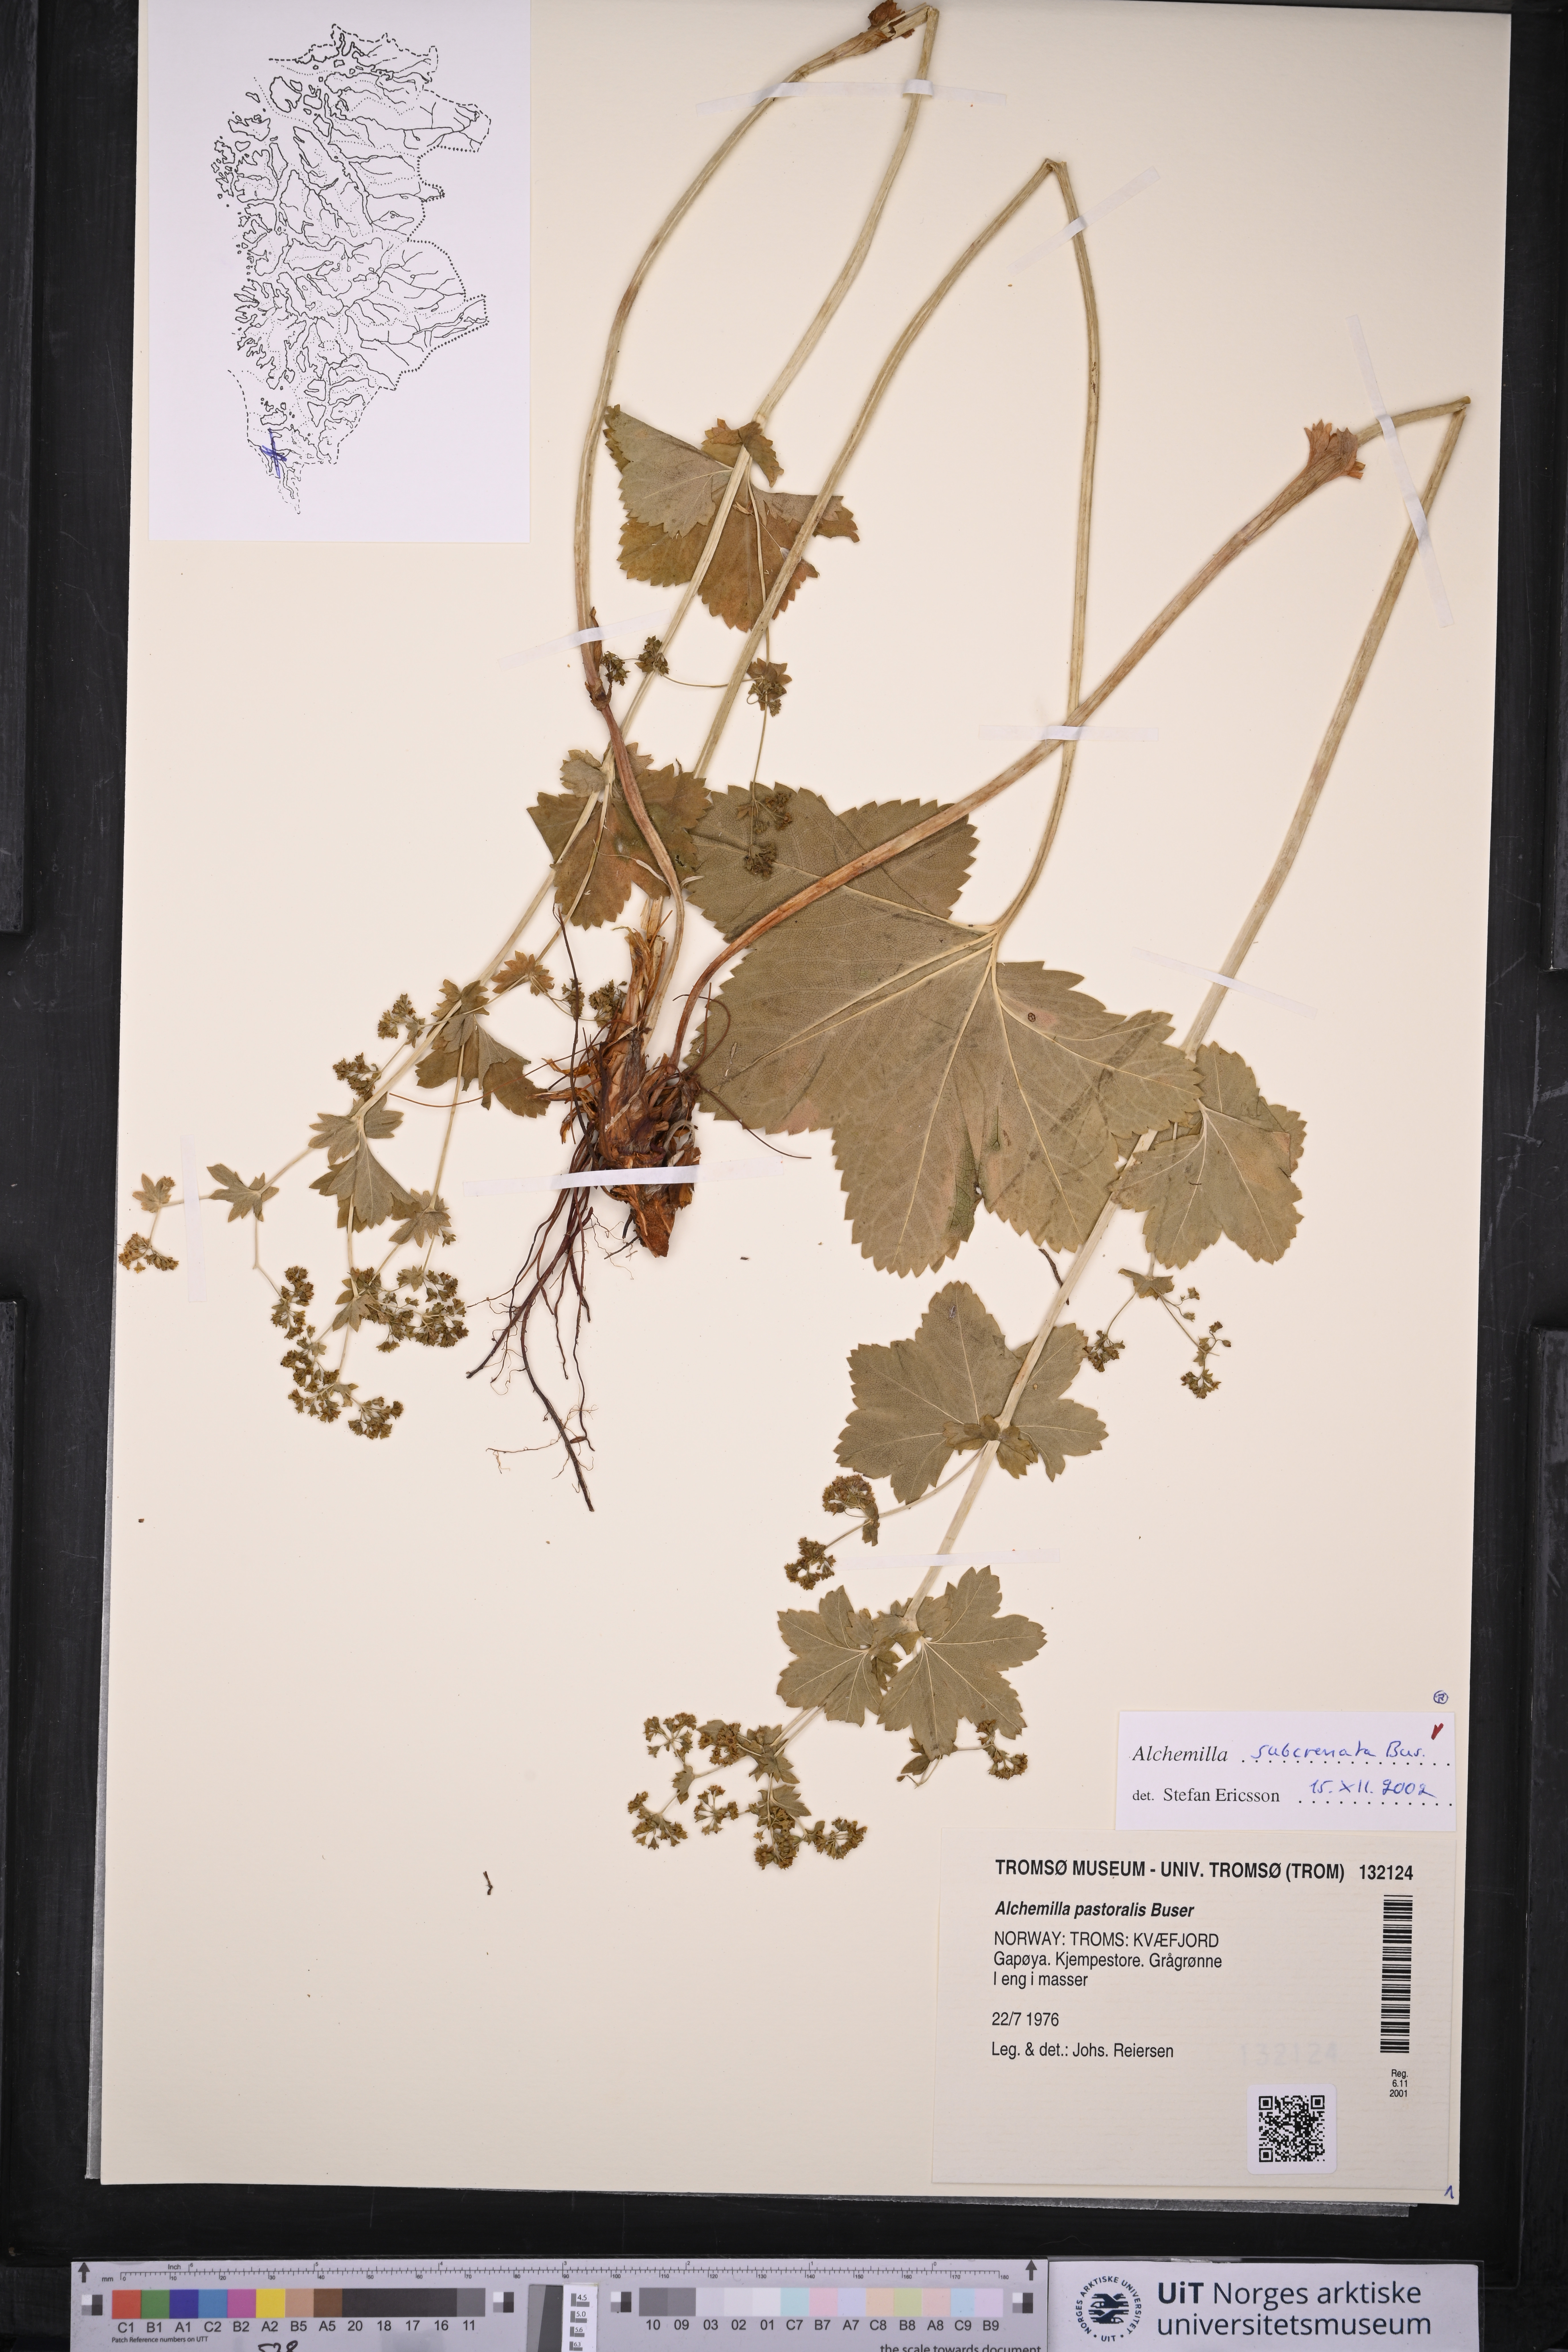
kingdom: Plantae
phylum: Tracheophyta
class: Magnoliopsida
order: Rosales
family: Rosaceae
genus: Alchemilla
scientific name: Alchemilla subcrenata
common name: Broadtooth lady's mantle
